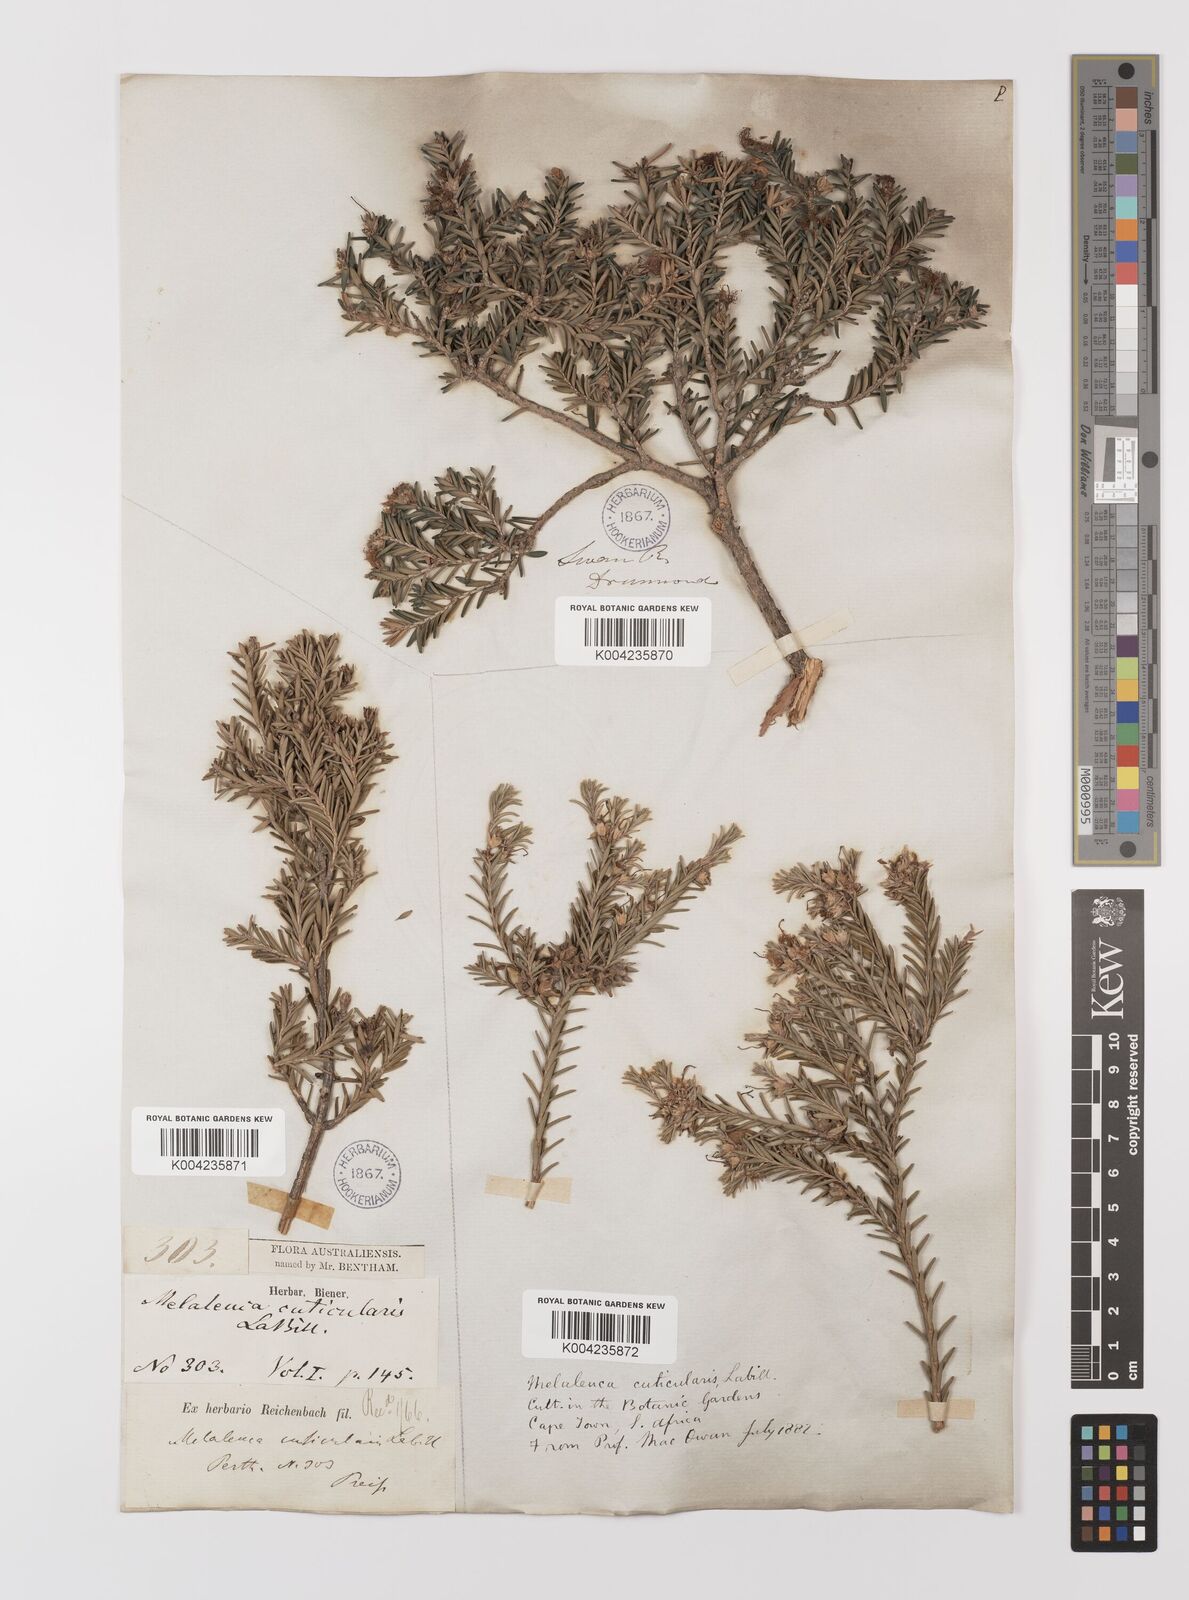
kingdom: Plantae
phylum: Tracheophyta
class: Magnoliopsida
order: Myrtales
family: Myrtaceae
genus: Melaleuca
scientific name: Melaleuca cuticularis
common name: Saltwater paperbark
